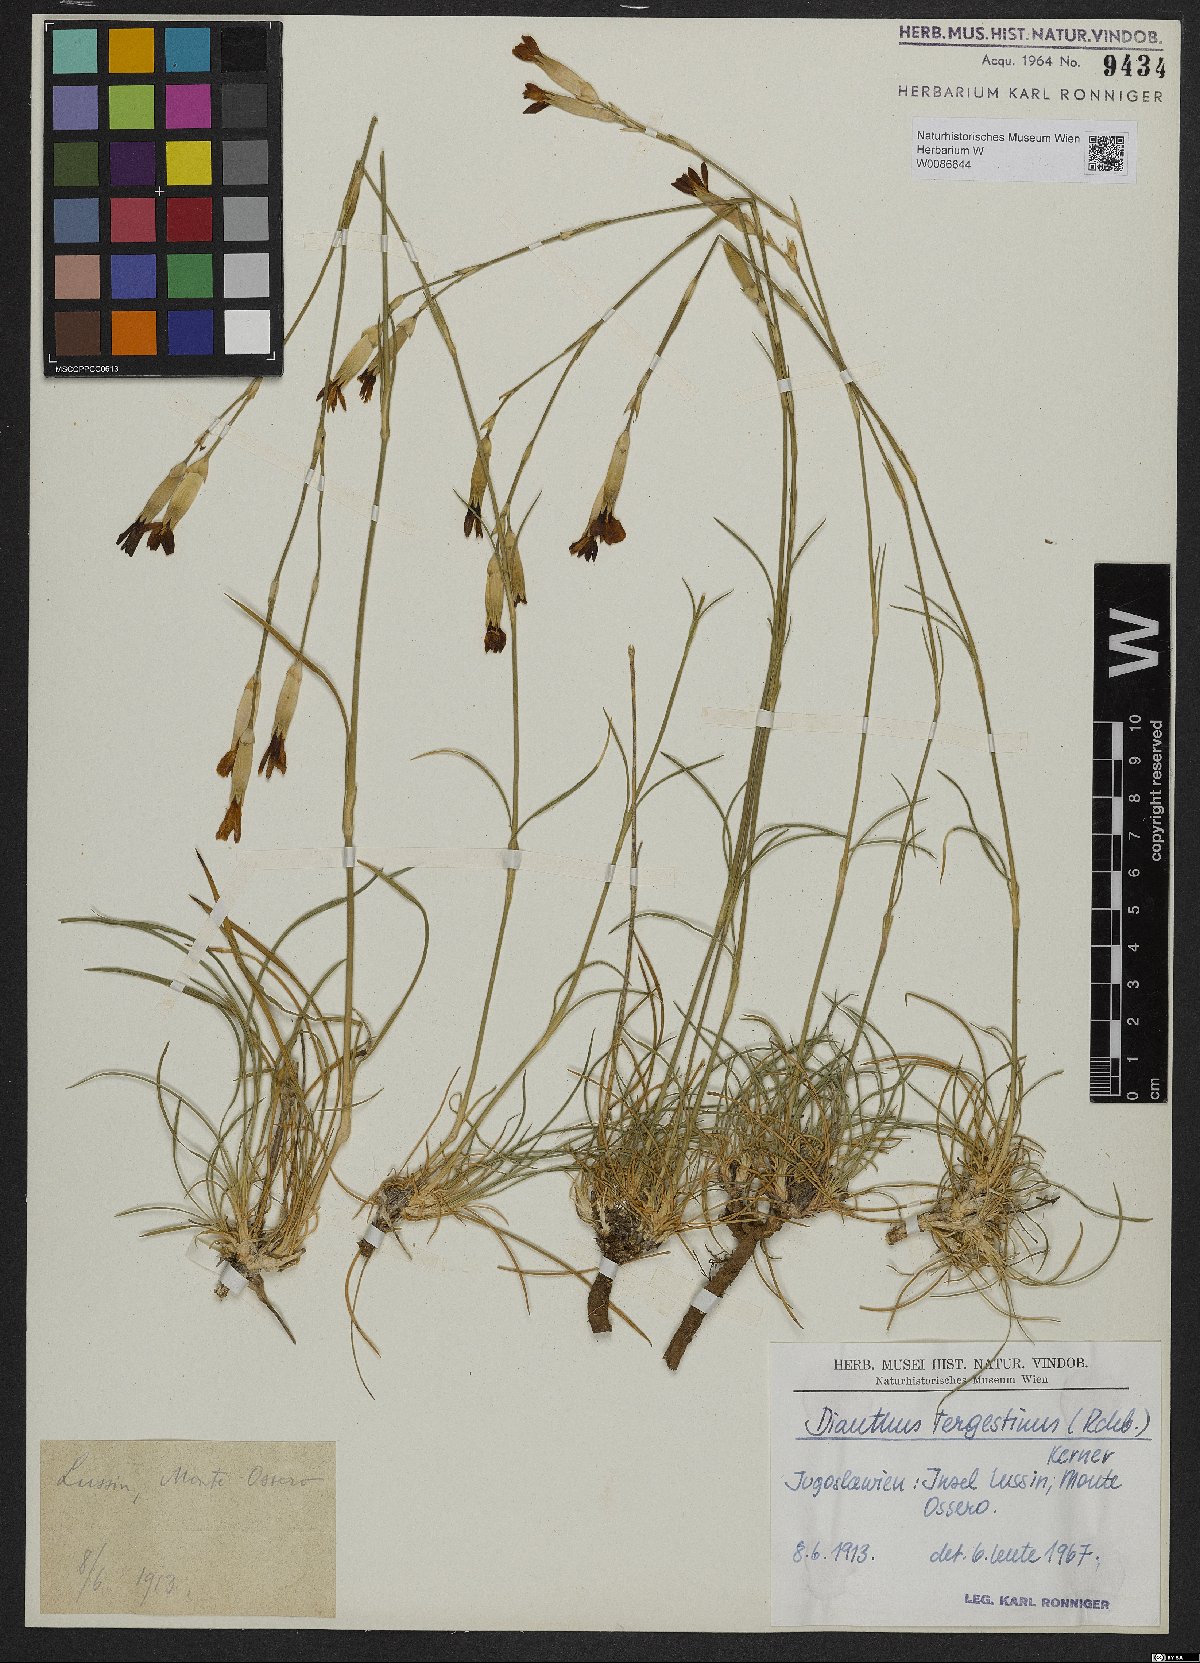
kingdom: Plantae
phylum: Tracheophyta
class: Magnoliopsida
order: Caryophyllales
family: Caryophyllaceae
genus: Dianthus
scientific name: Dianthus sylvestris
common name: Wood pink
